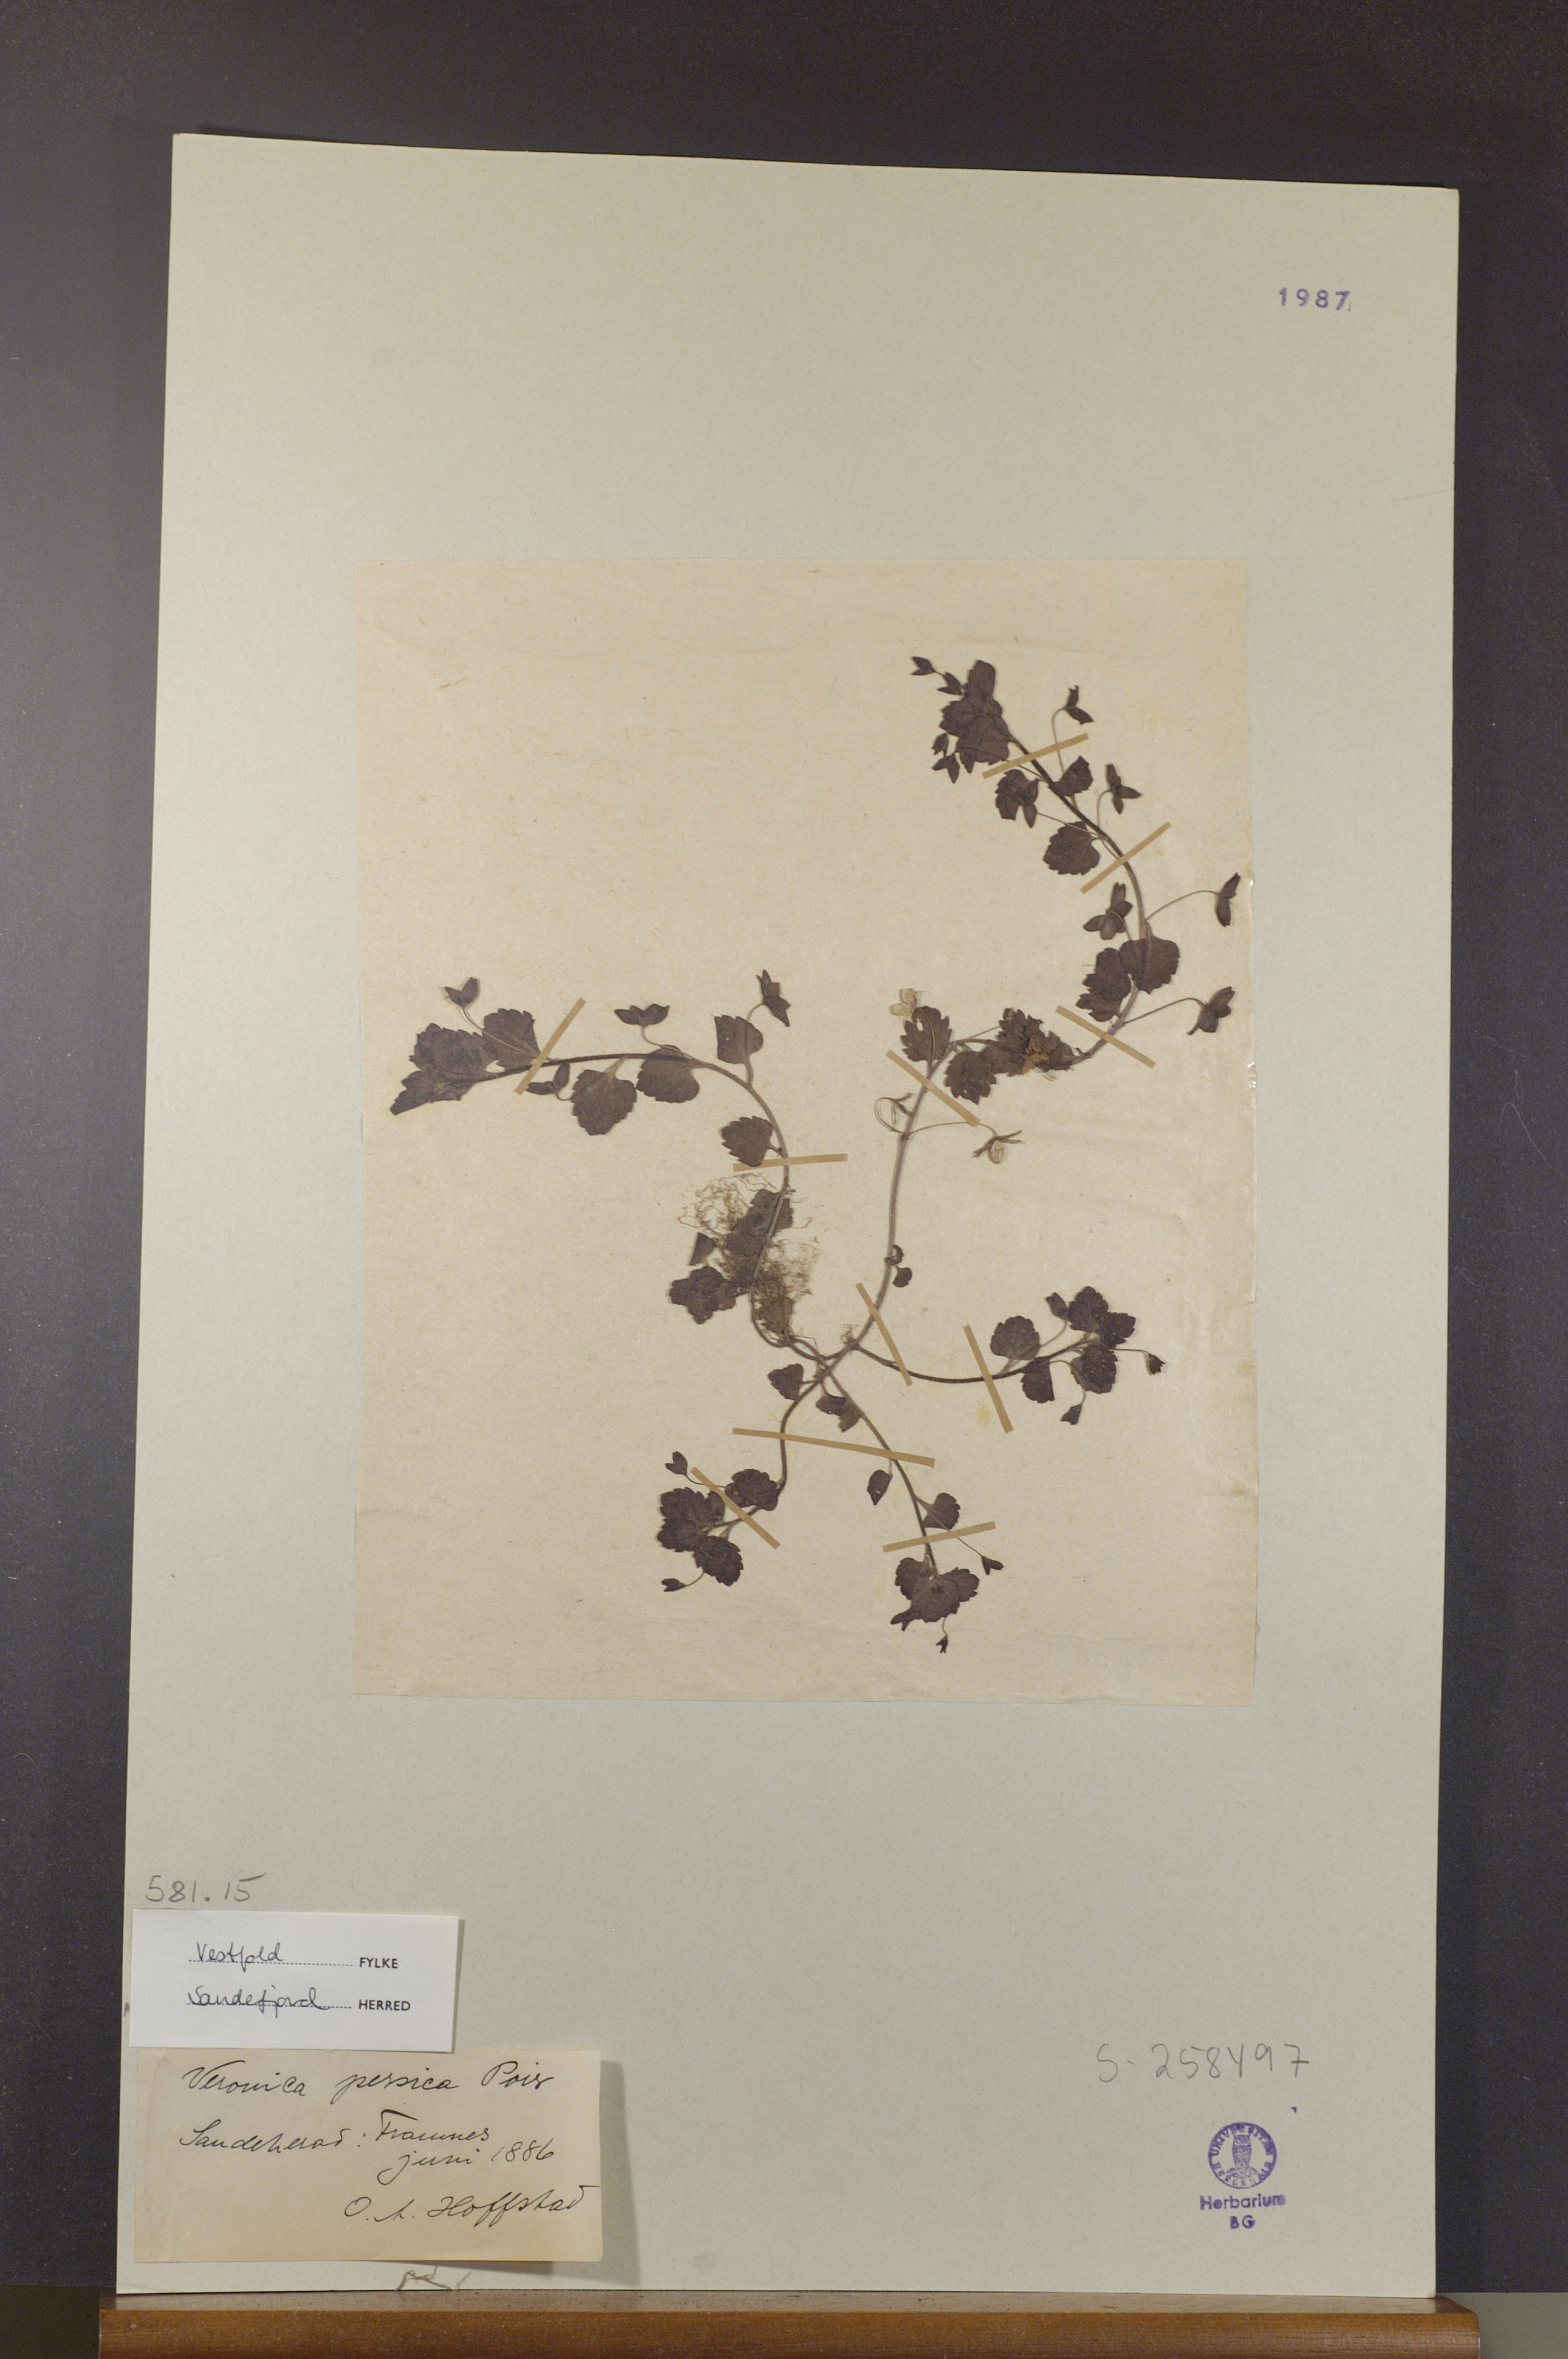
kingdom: Plantae
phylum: Tracheophyta
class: Magnoliopsida
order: Lamiales
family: Plantaginaceae
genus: Veronica
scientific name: Veronica persica
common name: Common field-speedwell
